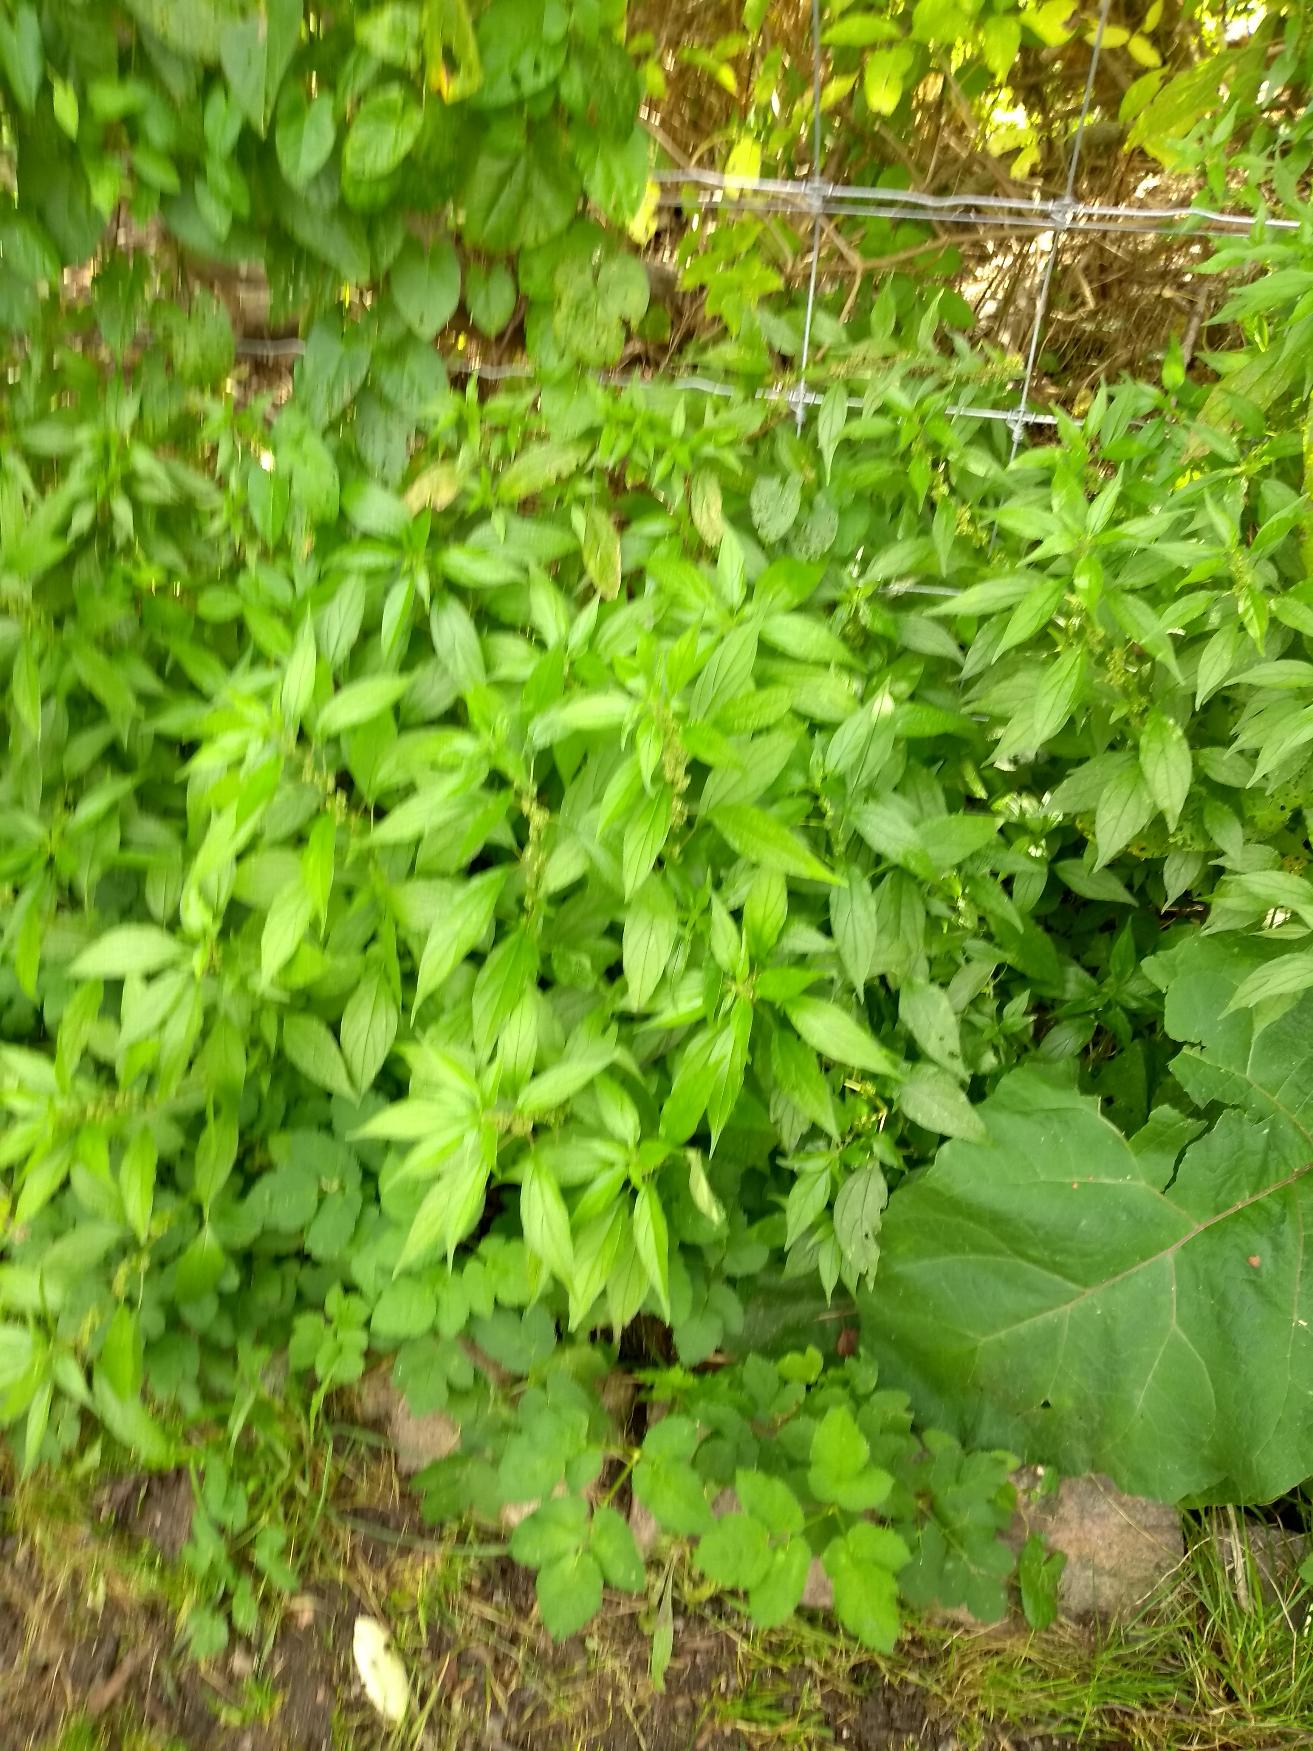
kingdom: Plantae
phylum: Tracheophyta
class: Magnoliopsida
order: Rosales
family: Urticaceae
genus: Parietaria
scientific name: Parietaria officinalis
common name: Almindelig springknap
